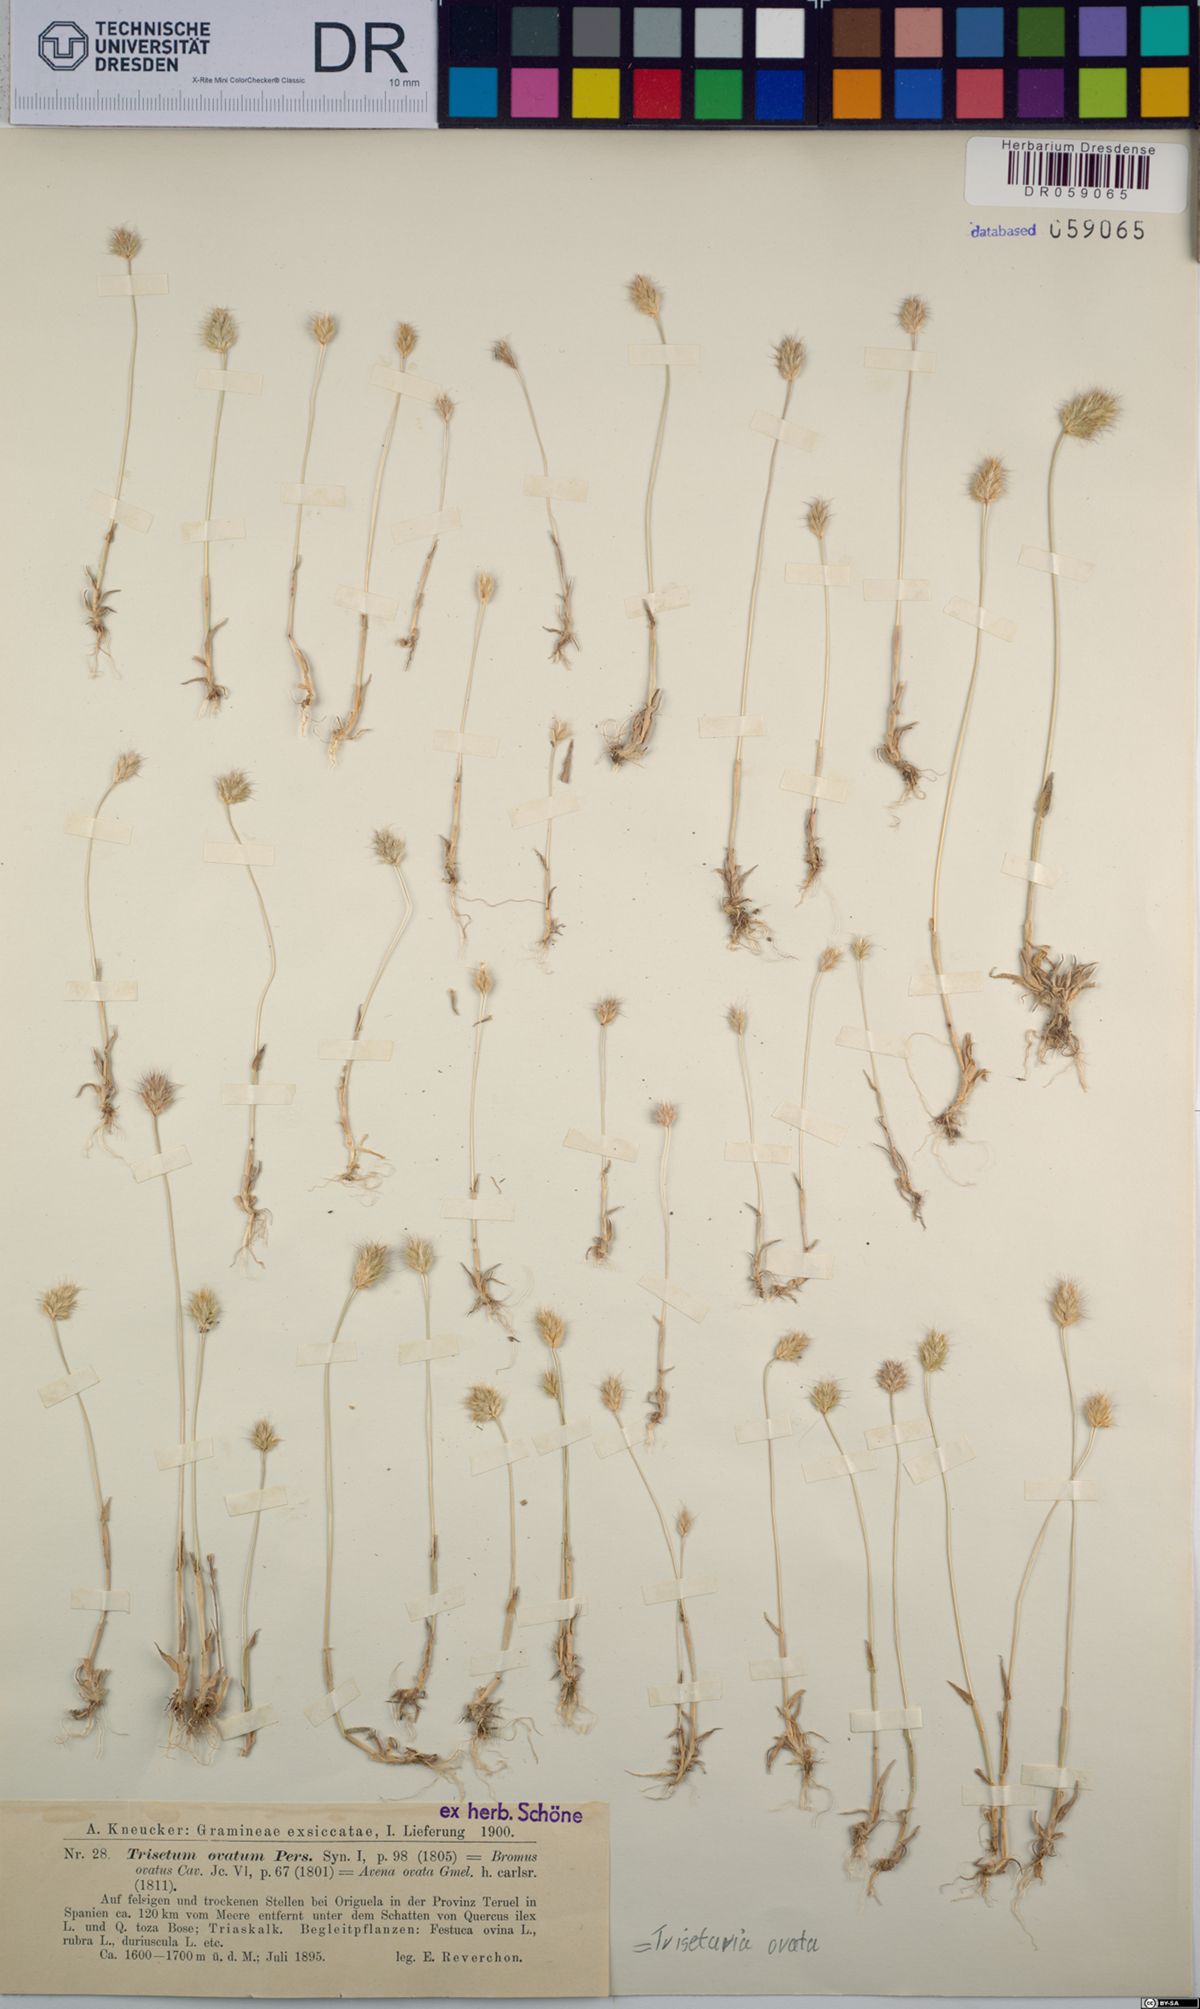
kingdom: Plantae
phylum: Tracheophyta
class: Liliopsida
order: Poales
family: Poaceae
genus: Trisetaria
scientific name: Trisetaria ovata
